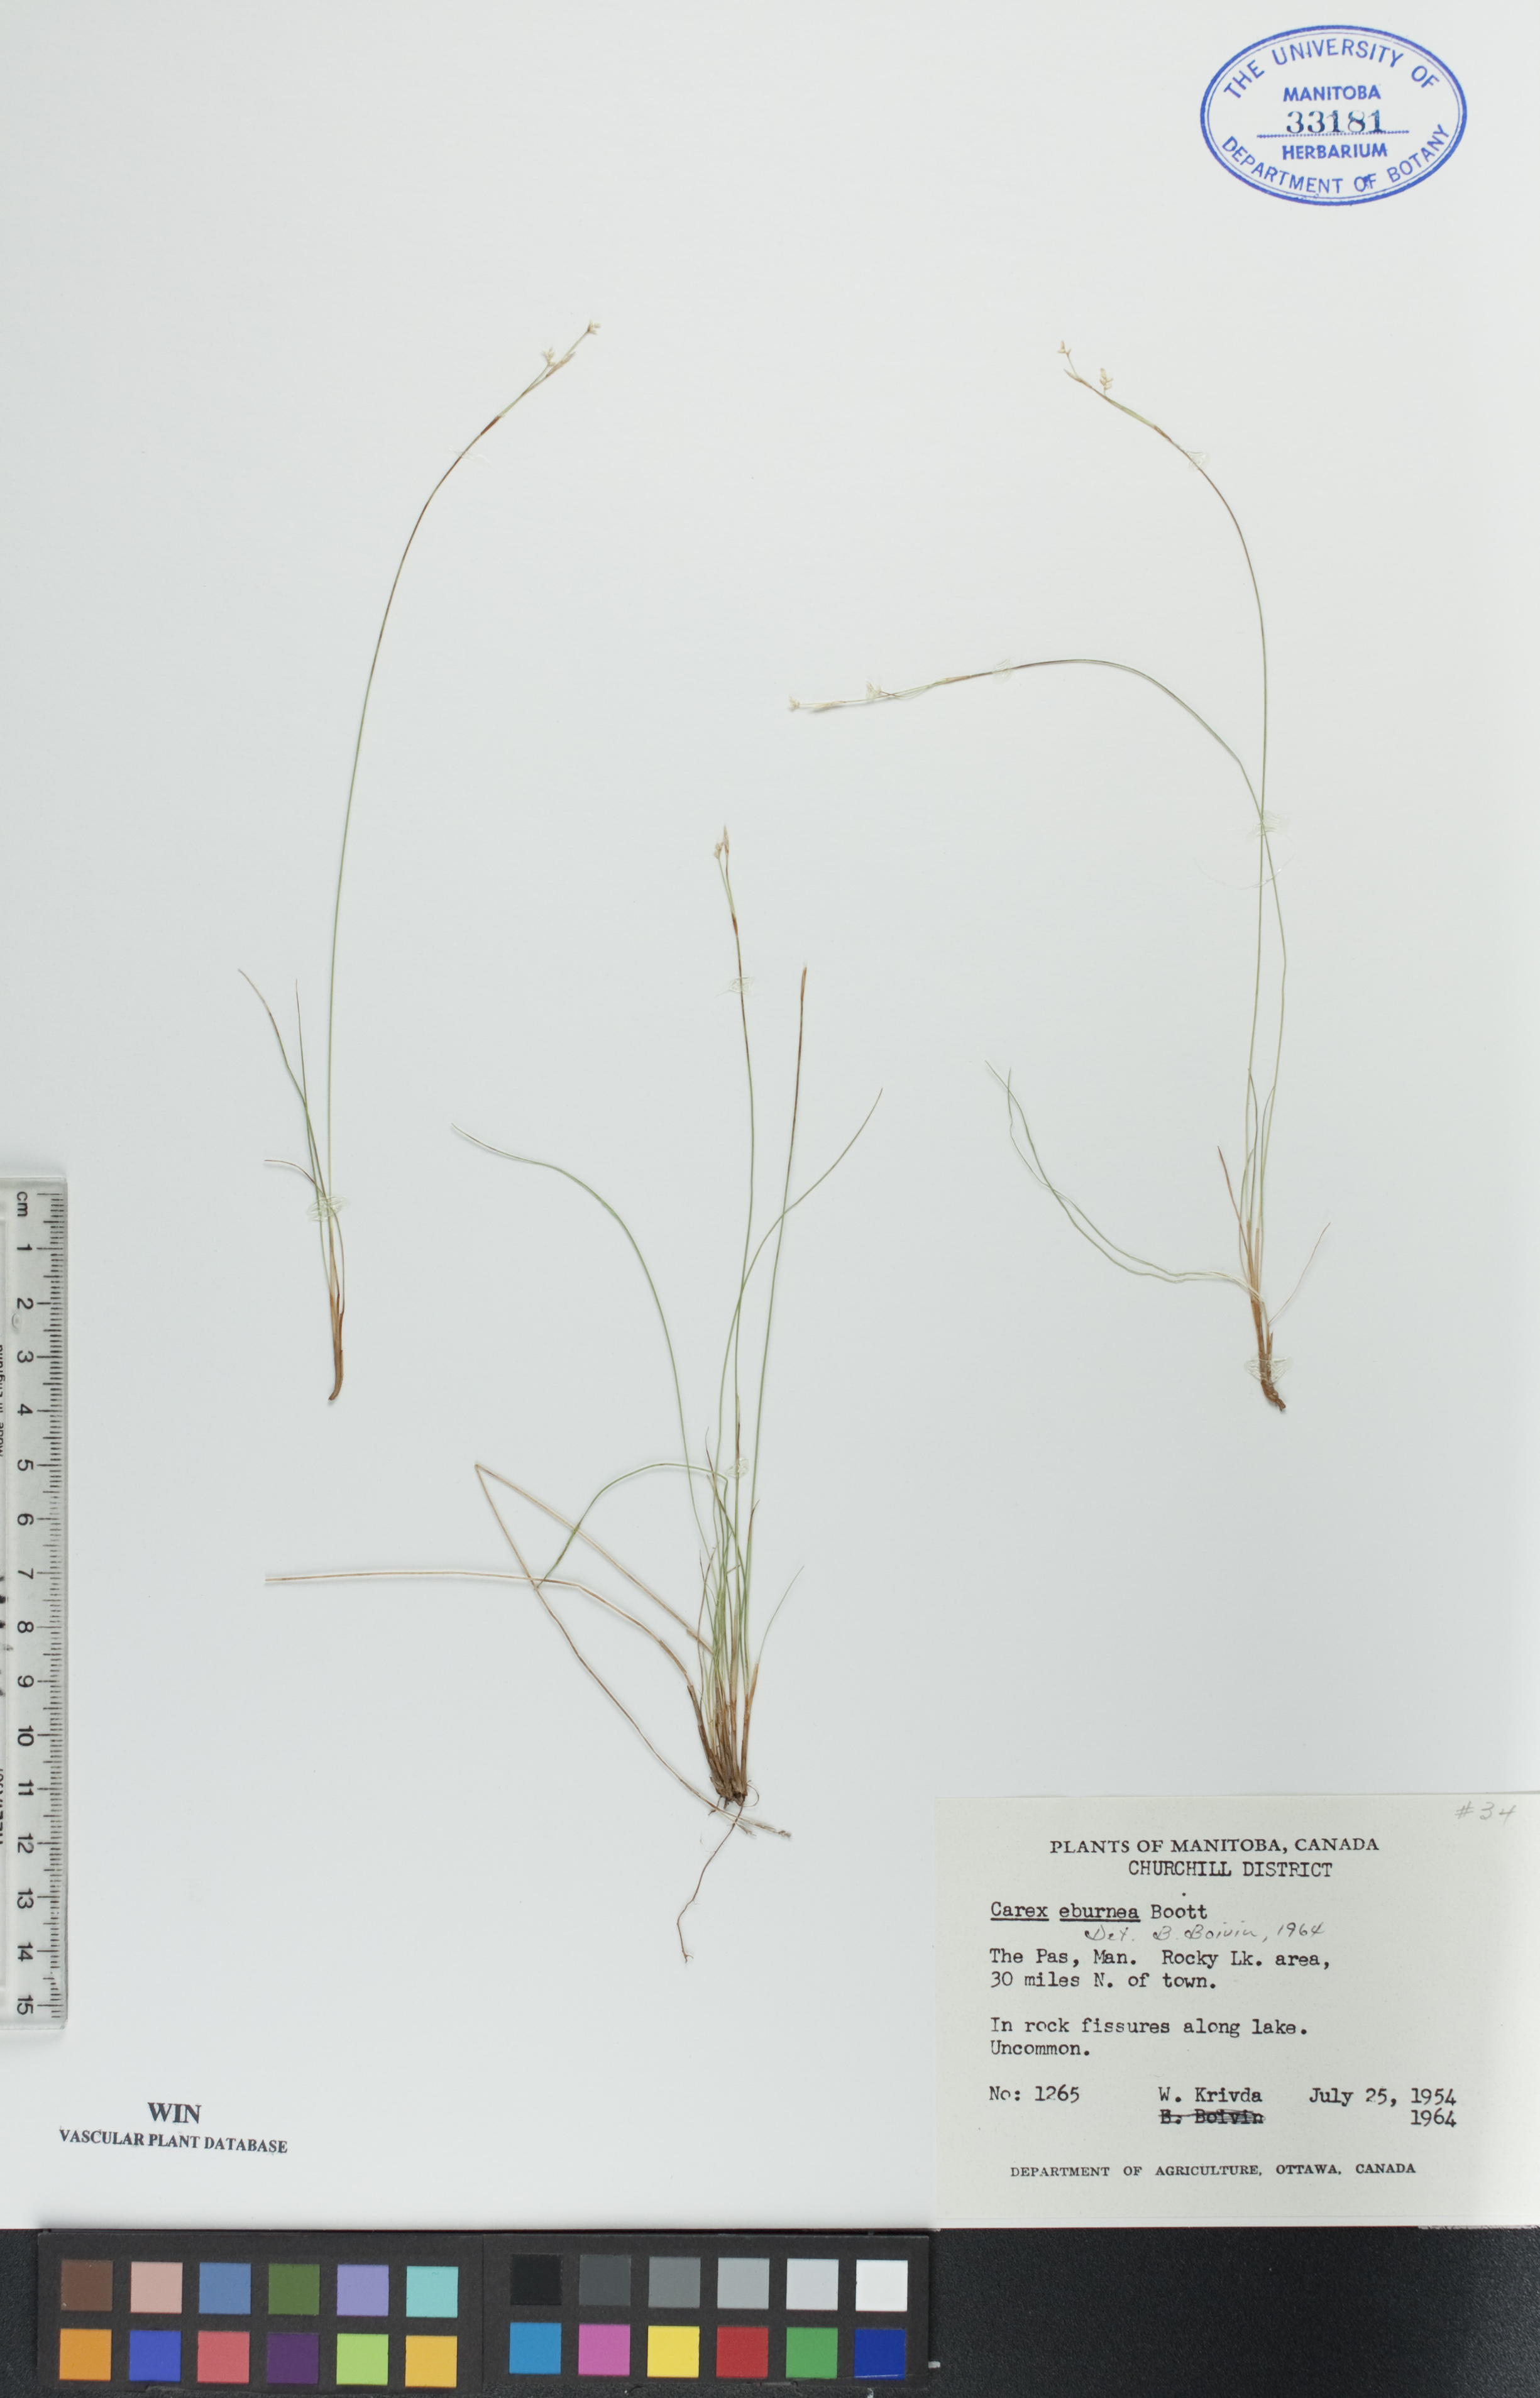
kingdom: Plantae
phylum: Tracheophyta
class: Liliopsida
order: Poales
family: Cyperaceae
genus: Carex
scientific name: Carex eburnea
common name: Bristle-leaved sedge
